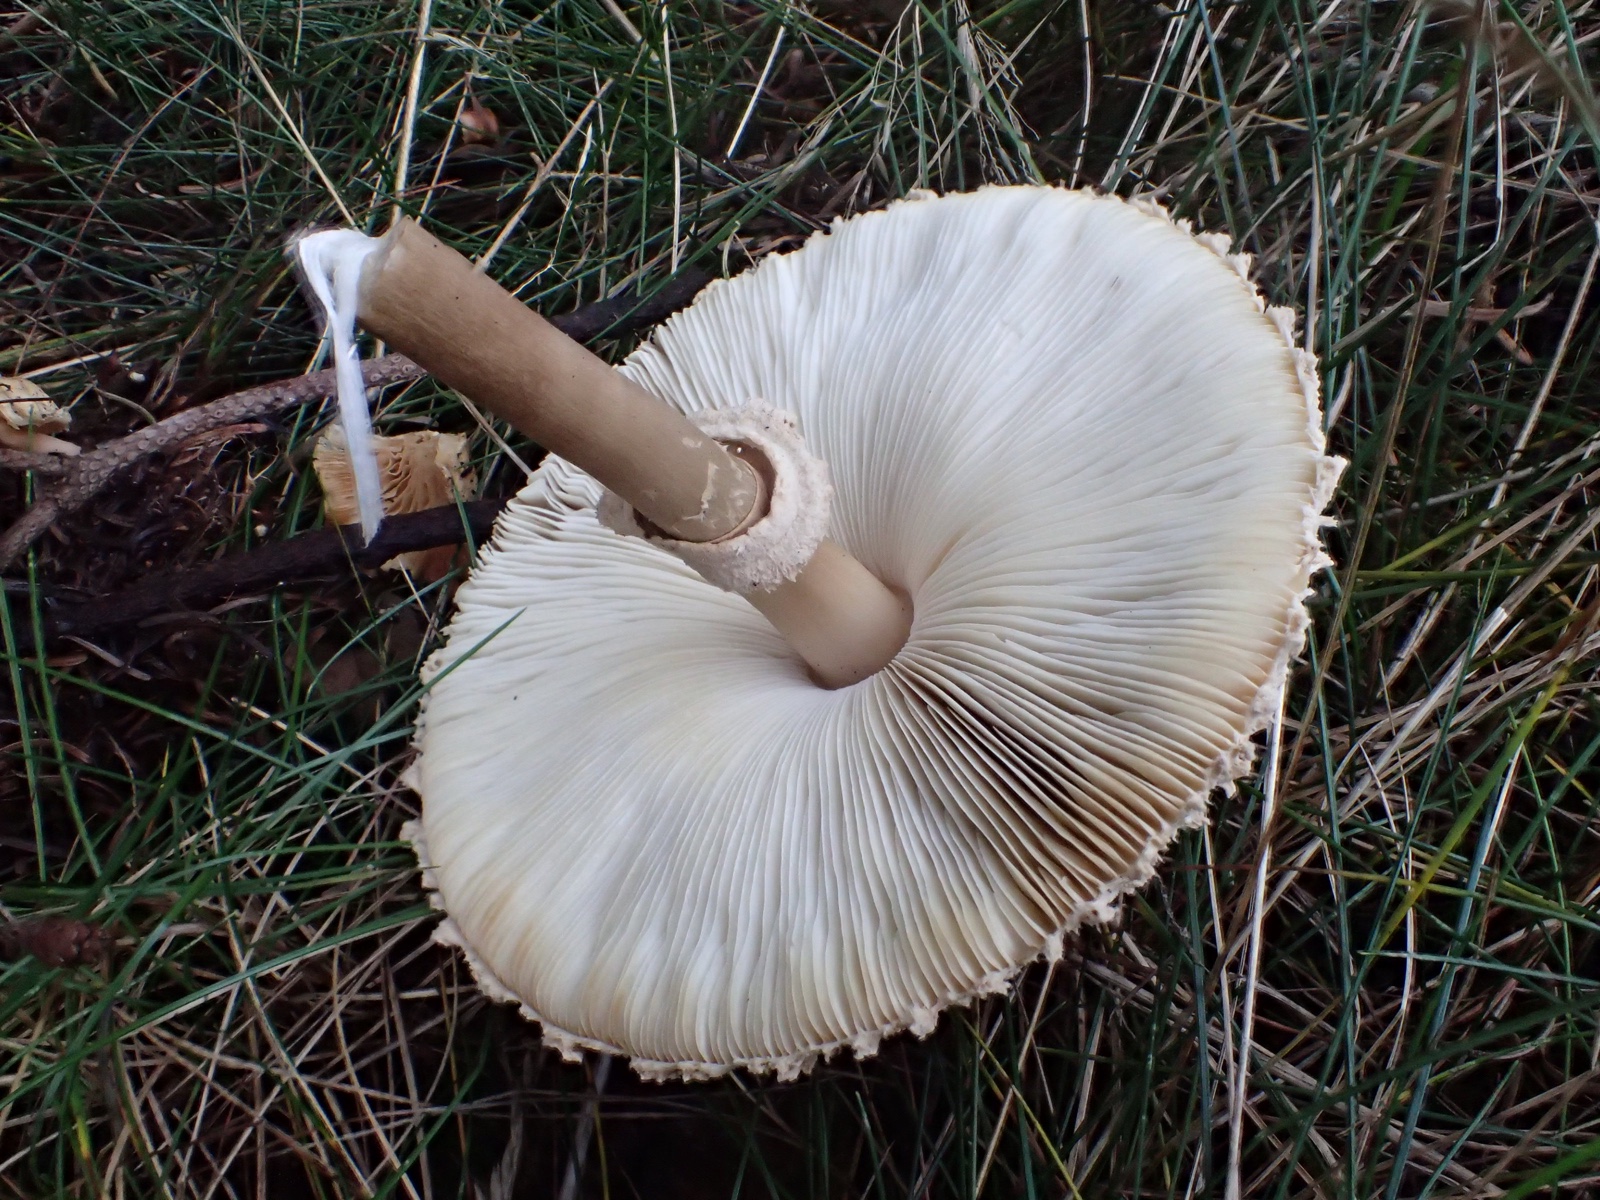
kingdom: Fungi
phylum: Basidiomycota
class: Agaricomycetes
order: Agaricales
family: Agaricaceae
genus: Leucoagaricus
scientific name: Leucoagaricus nympharum
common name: gran-silkehat
